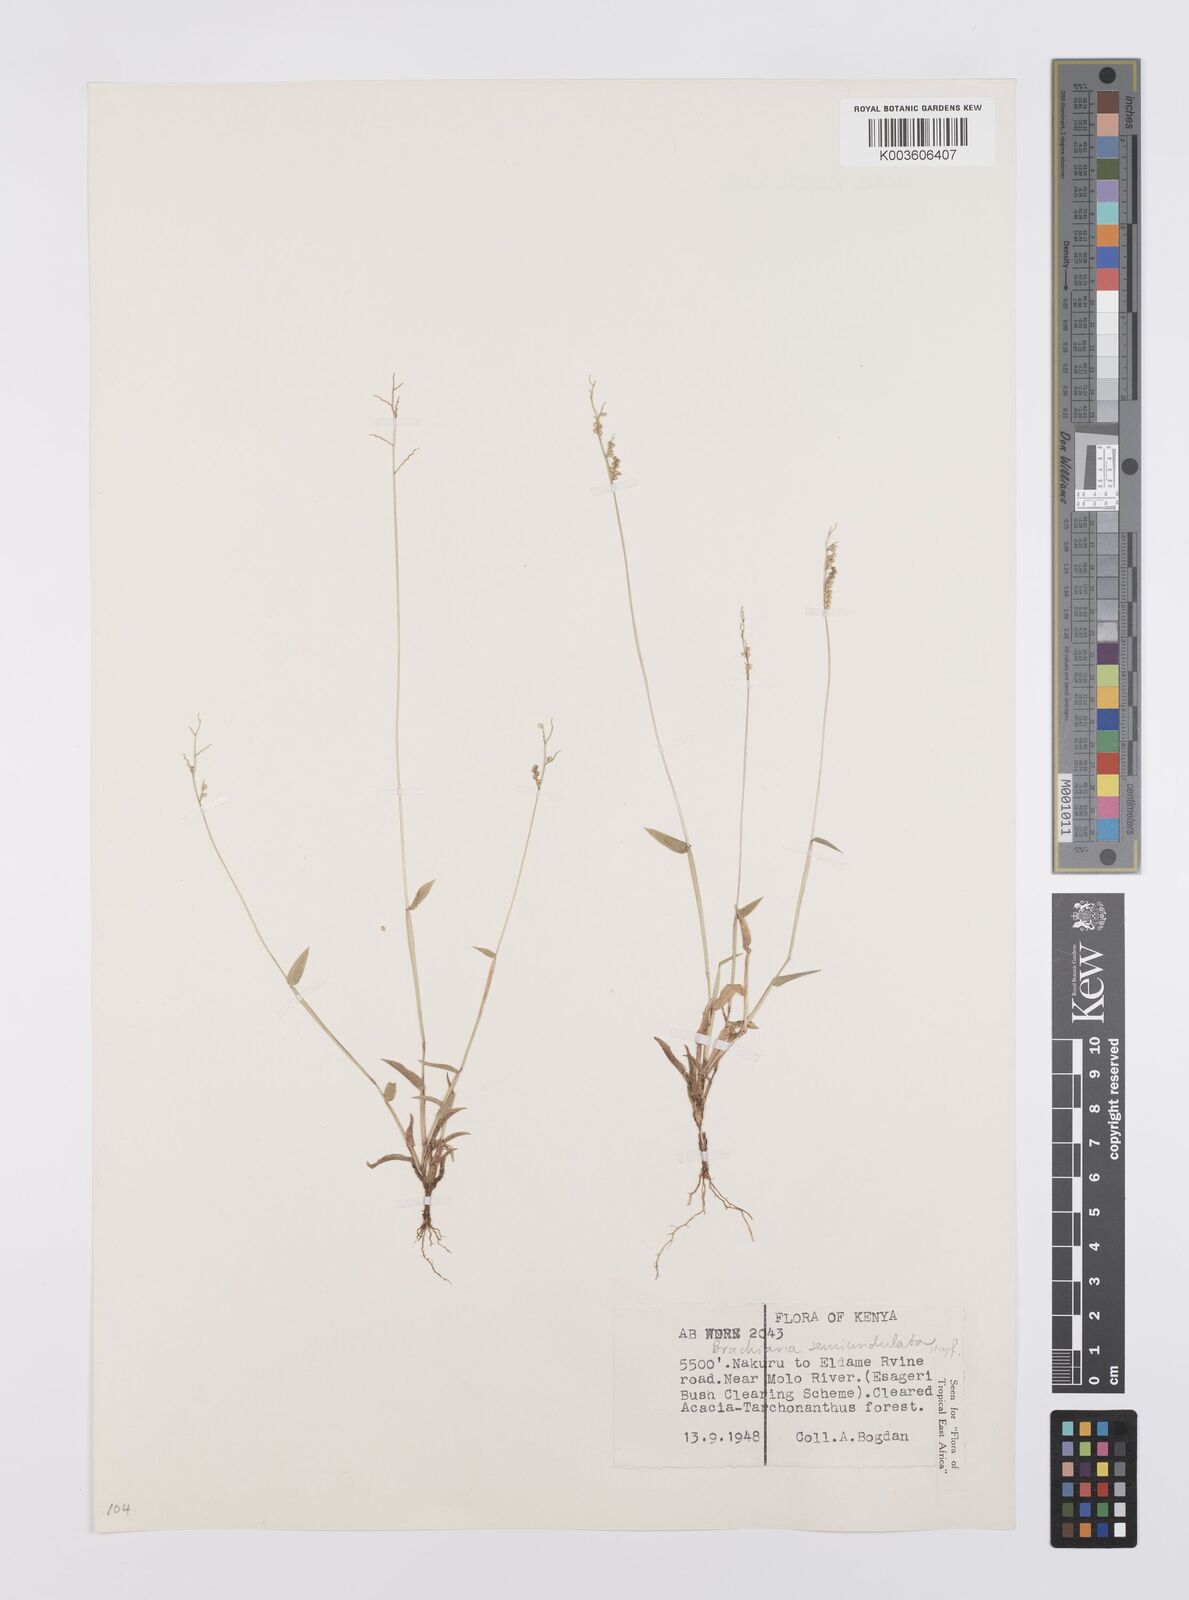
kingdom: Plantae
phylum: Tracheophyta
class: Liliopsida
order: Poales
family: Poaceae
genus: Urochloa
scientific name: Urochloa semiundulata
